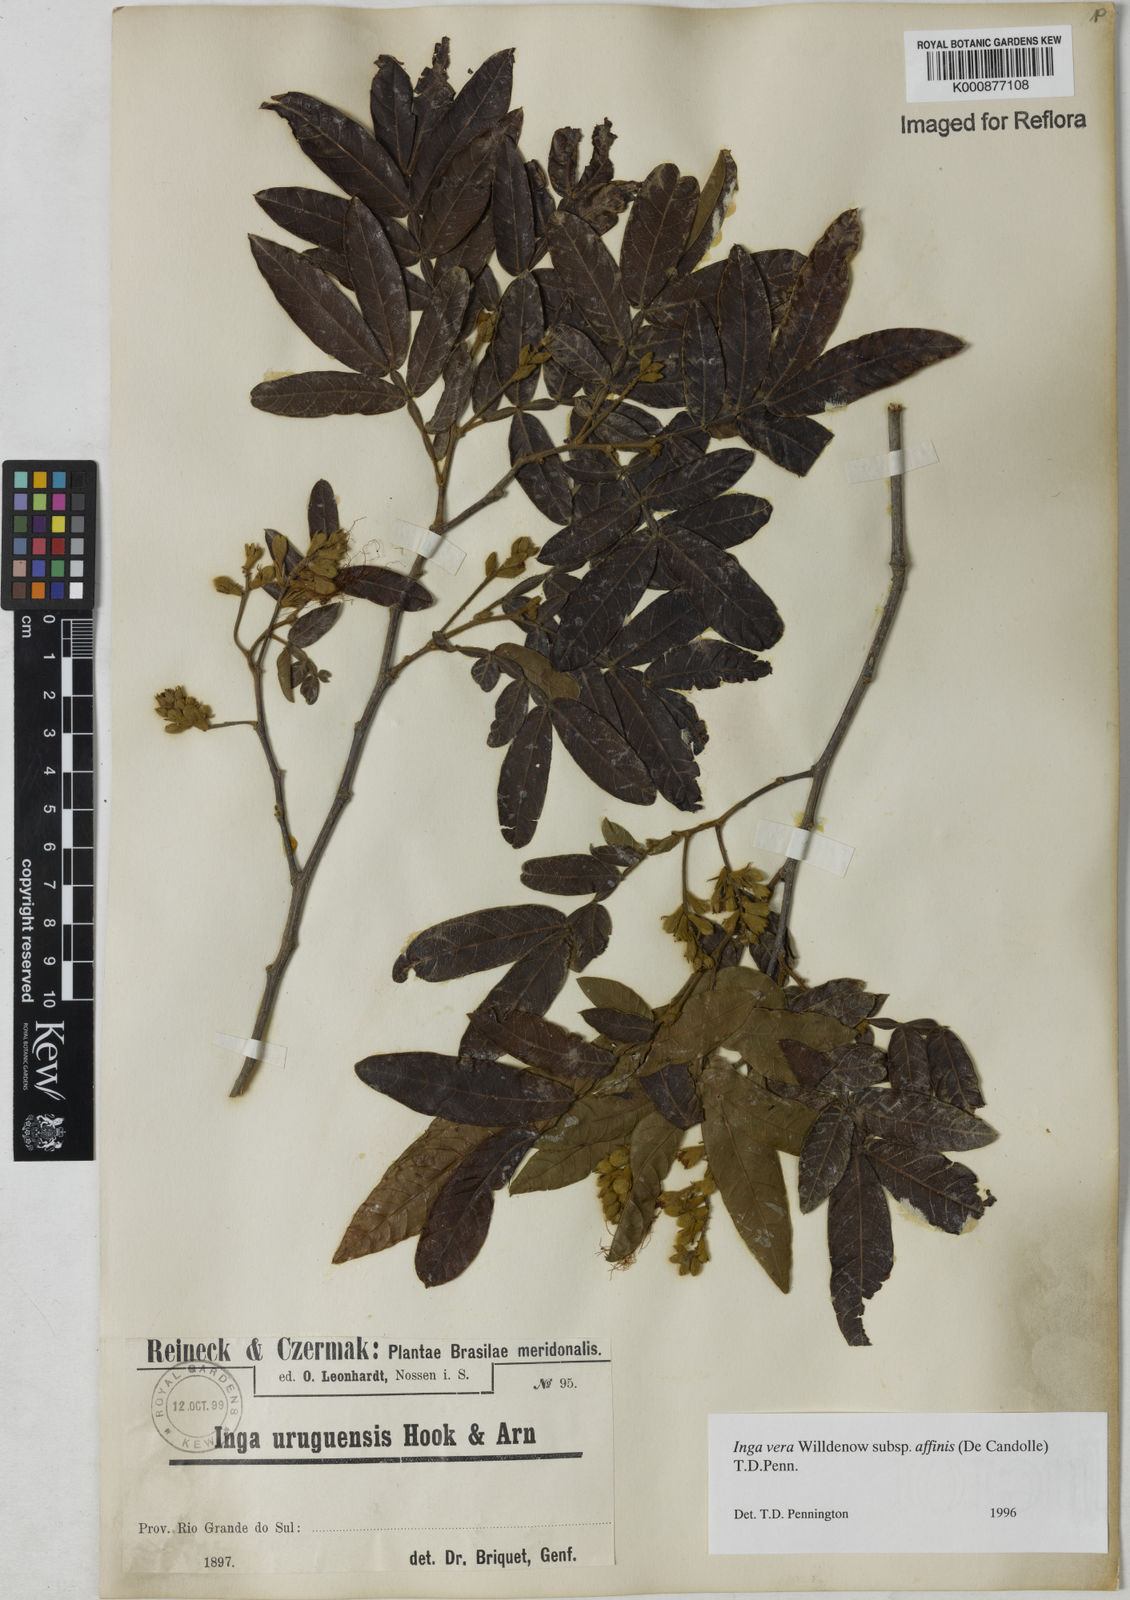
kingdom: Plantae
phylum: Tracheophyta
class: Magnoliopsida
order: Fabales
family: Fabaceae
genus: Inga
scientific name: Inga affinis
